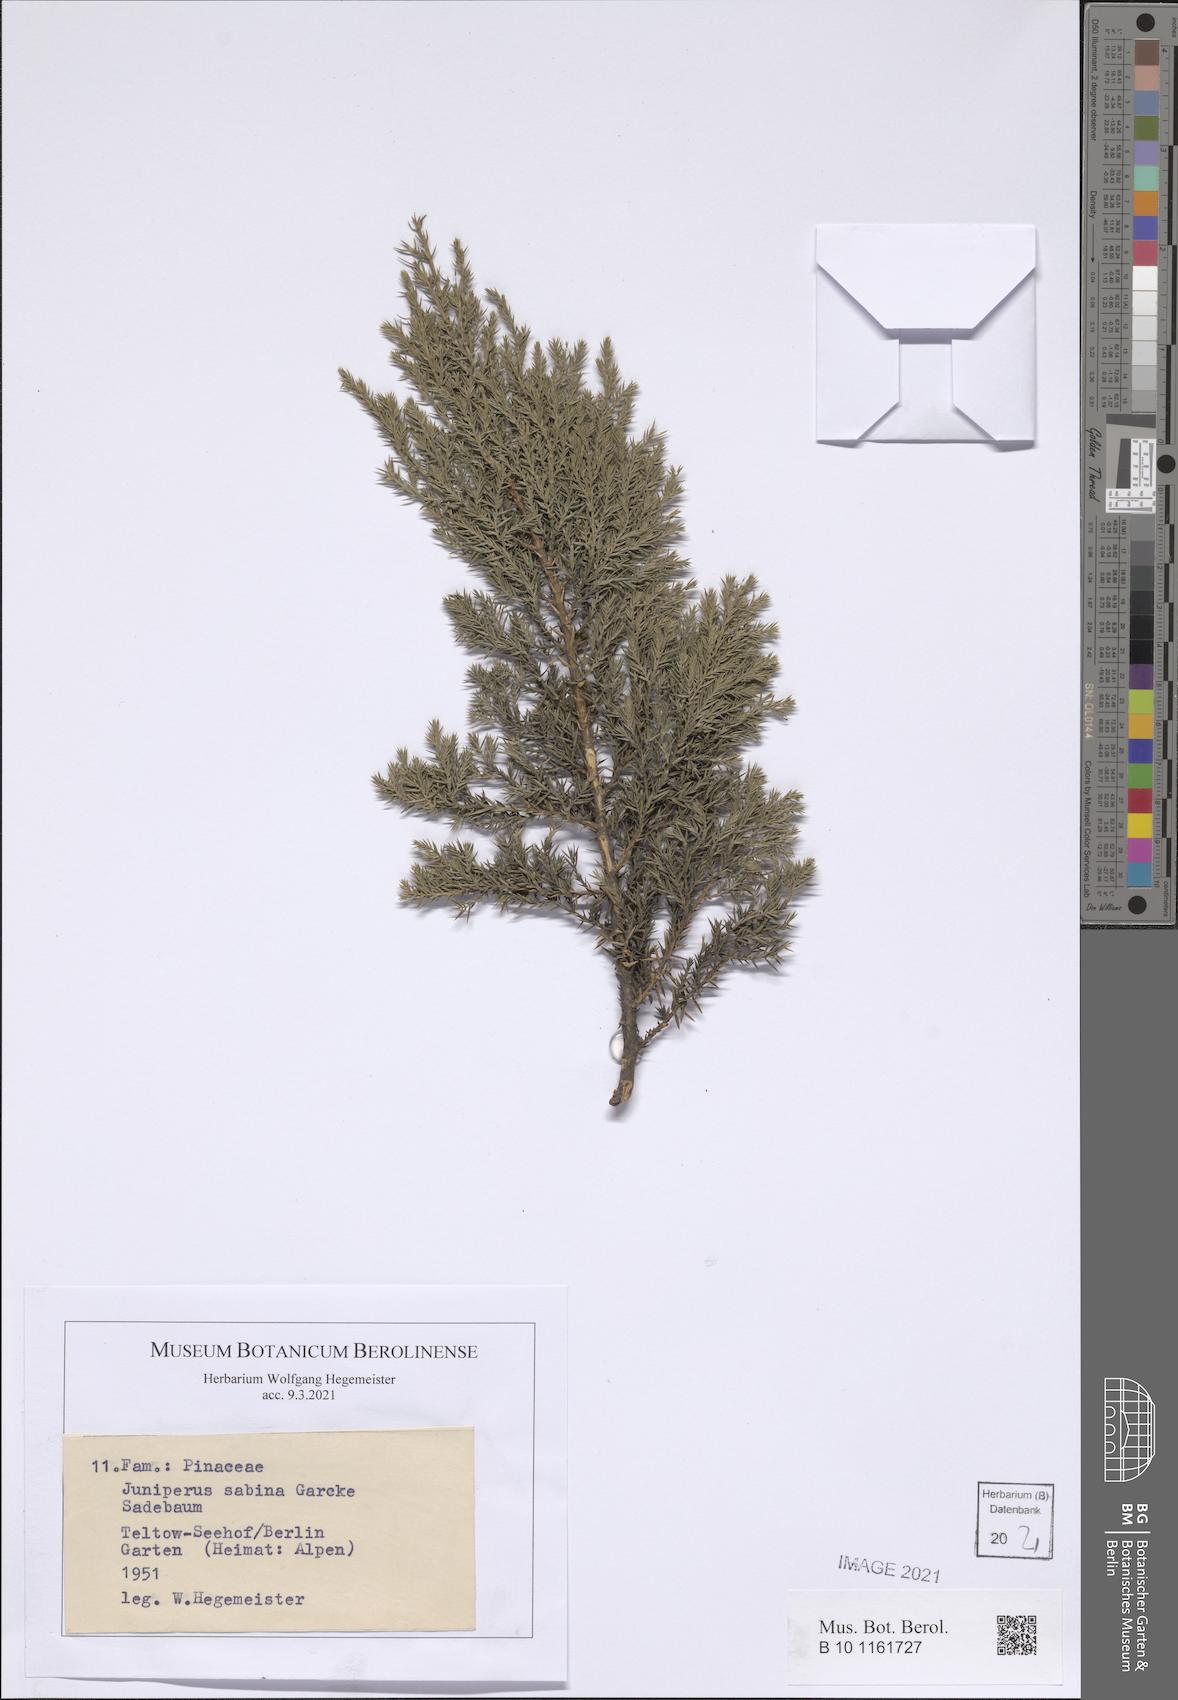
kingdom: Plantae
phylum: Tracheophyta
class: Pinopsida
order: Pinales
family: Cupressaceae
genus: Juniperus
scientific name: Juniperus sabina
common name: Savin
